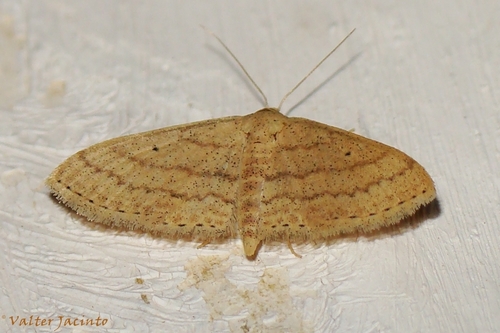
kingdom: Animalia
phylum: Arthropoda
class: Insecta
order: Lepidoptera
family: Geometridae
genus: Scopula
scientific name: Scopula minorata
